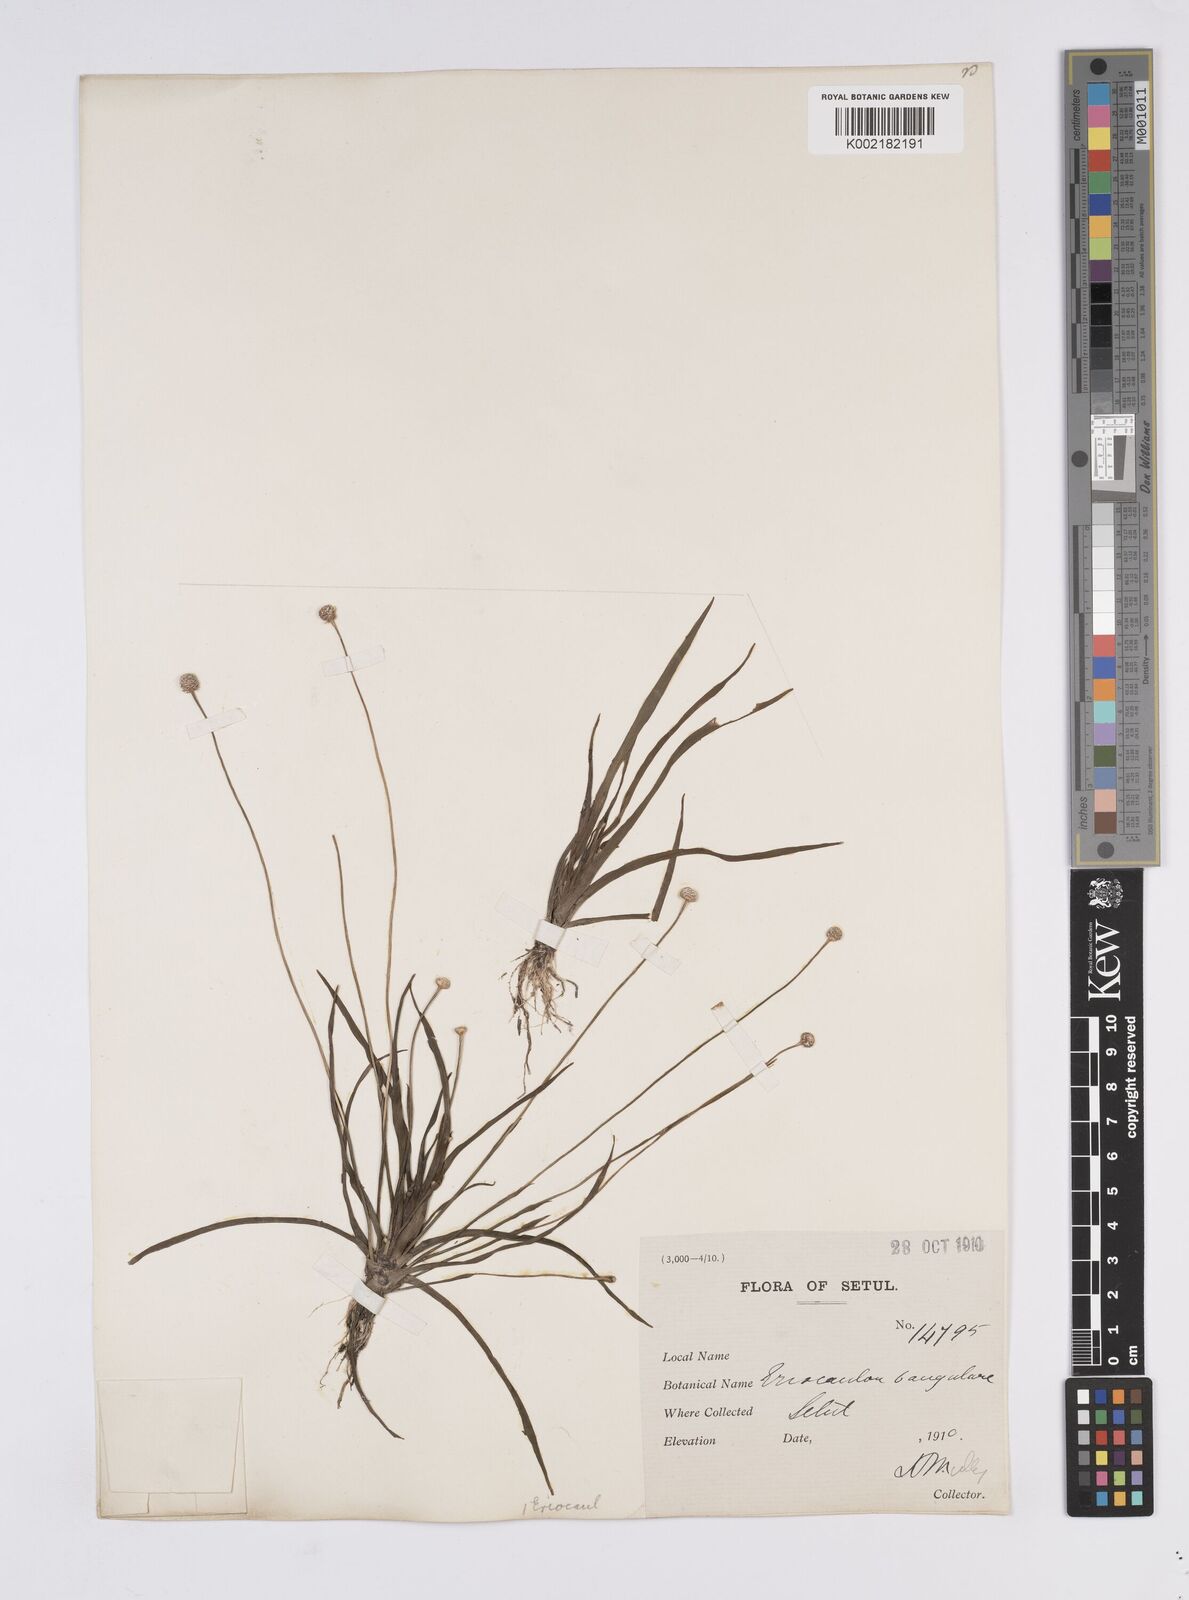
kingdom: Plantae
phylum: Tracheophyta
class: Liliopsida
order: Poales
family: Eriocaulaceae
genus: Eriocaulon
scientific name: Eriocaulon silicicola
